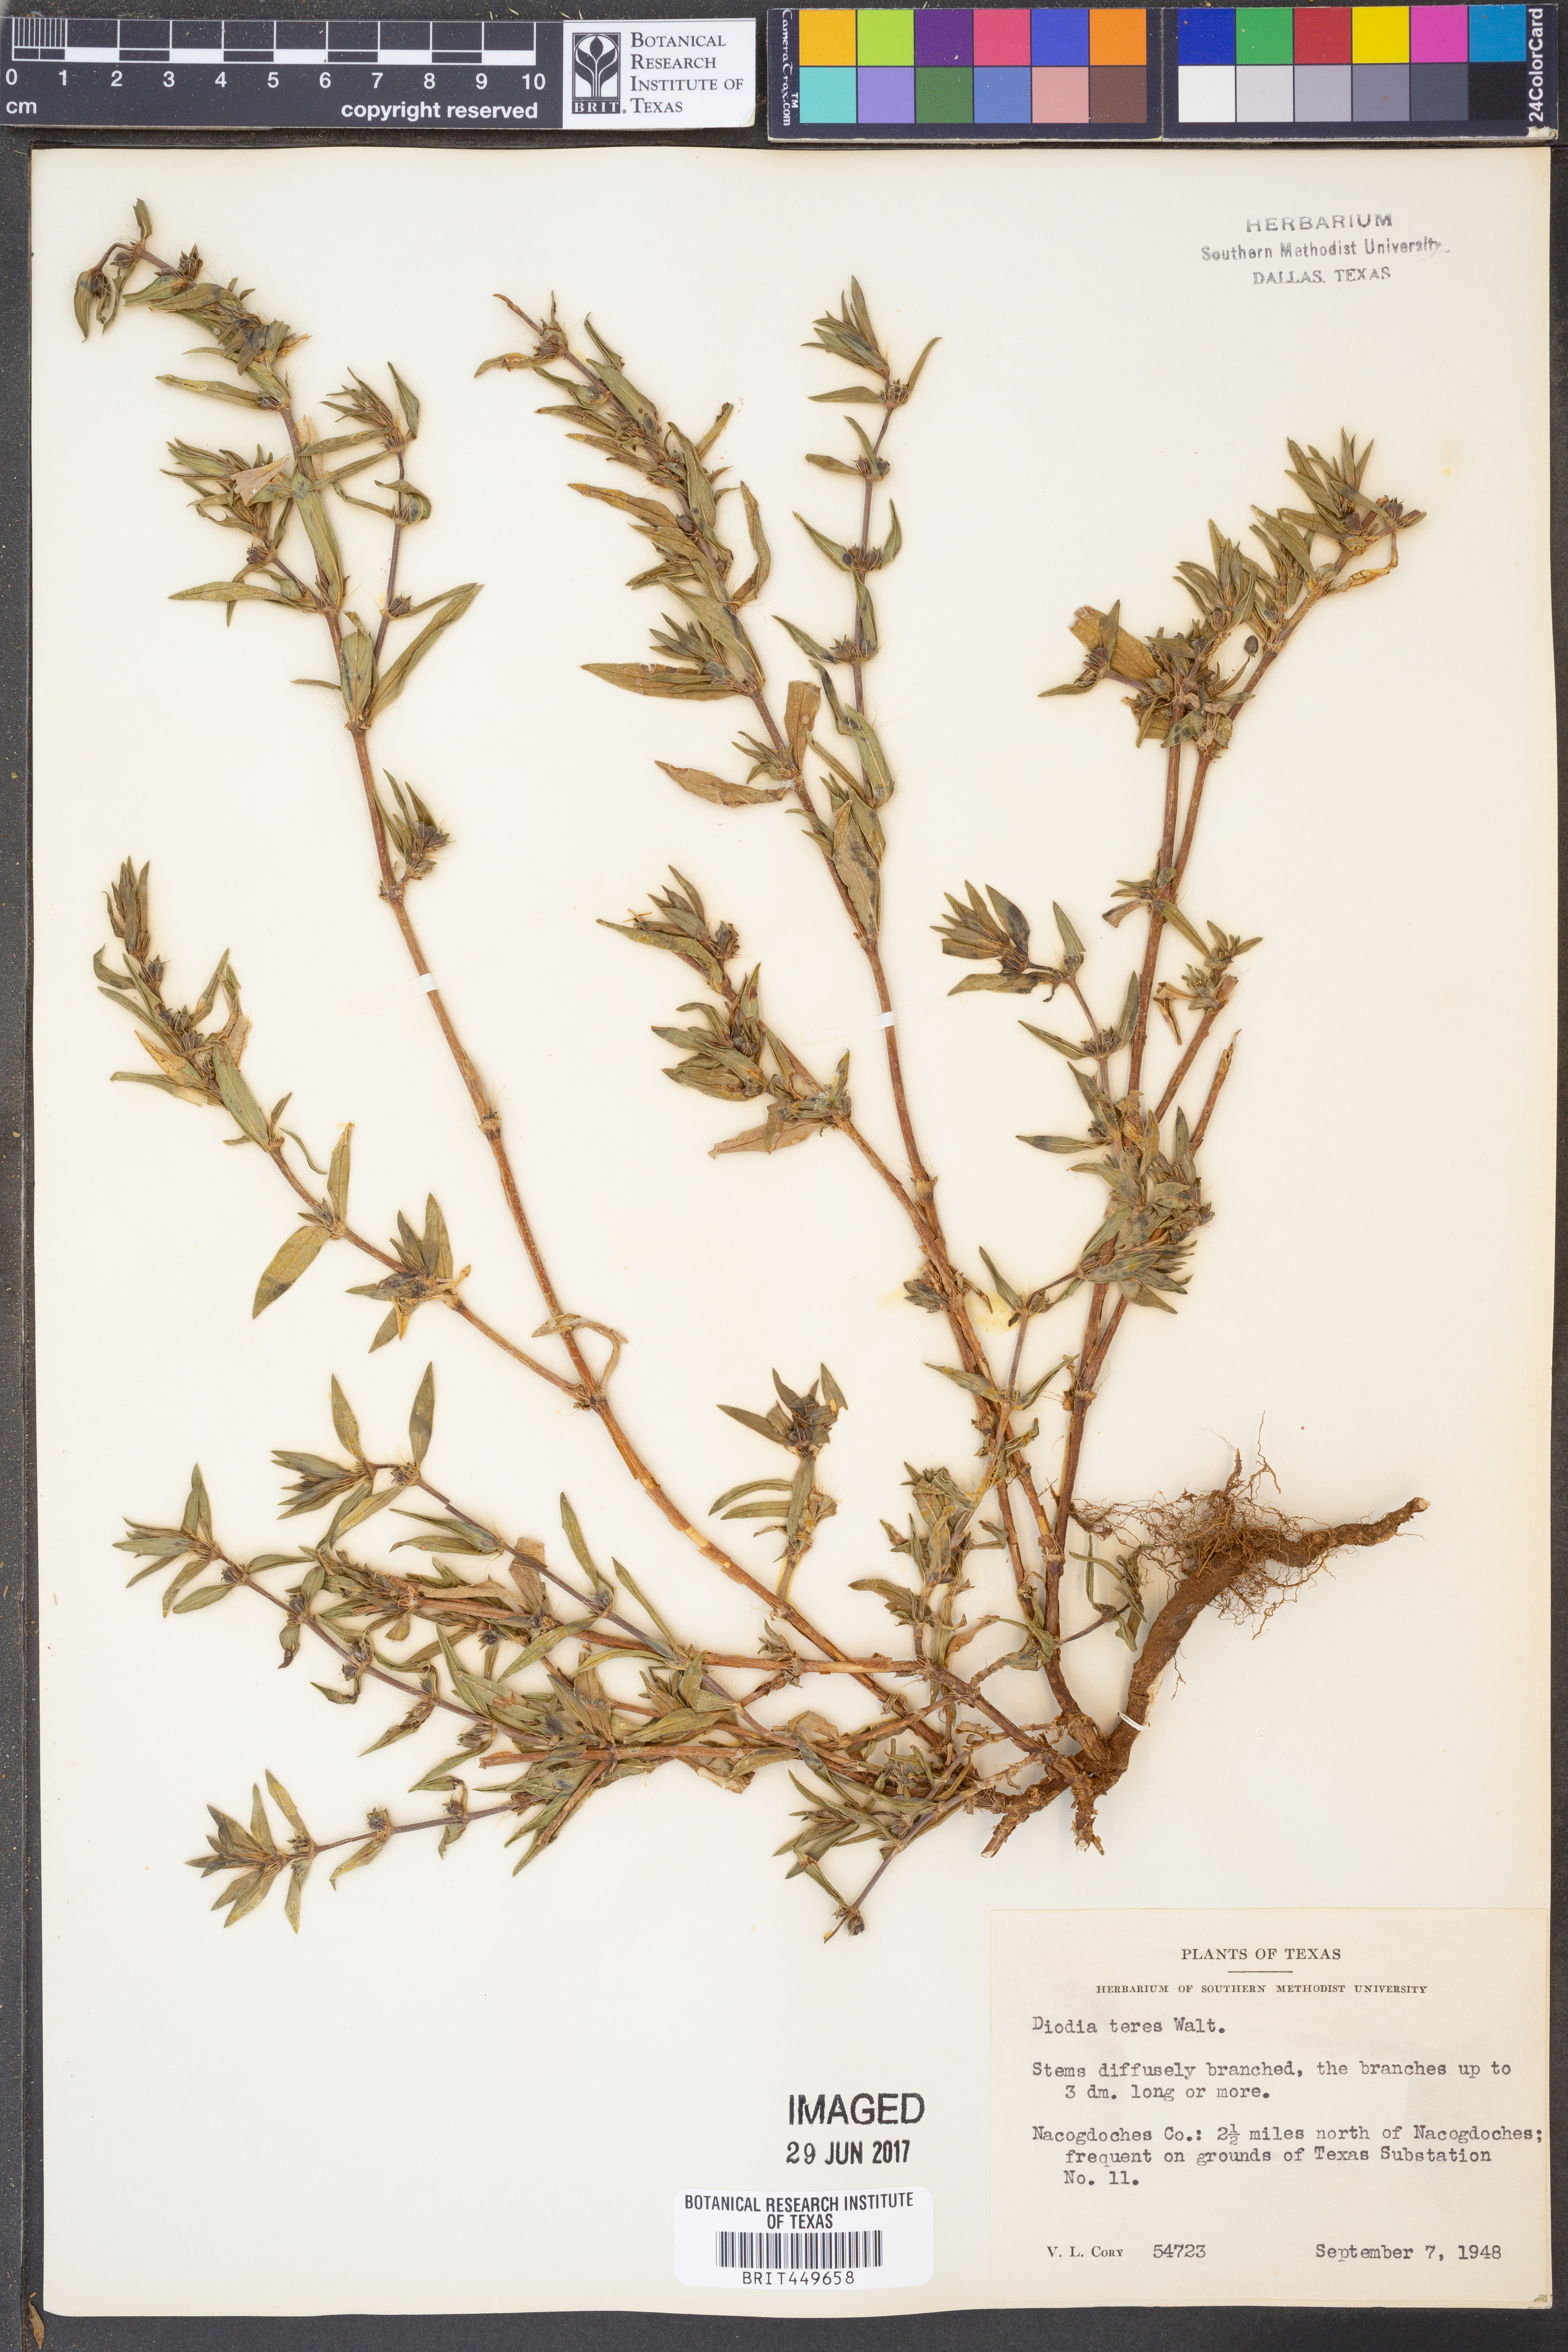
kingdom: Plantae
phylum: Tracheophyta
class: Magnoliopsida
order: Gentianales
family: Rubiaceae
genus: Hexasepalum
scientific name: Hexasepalum teres
